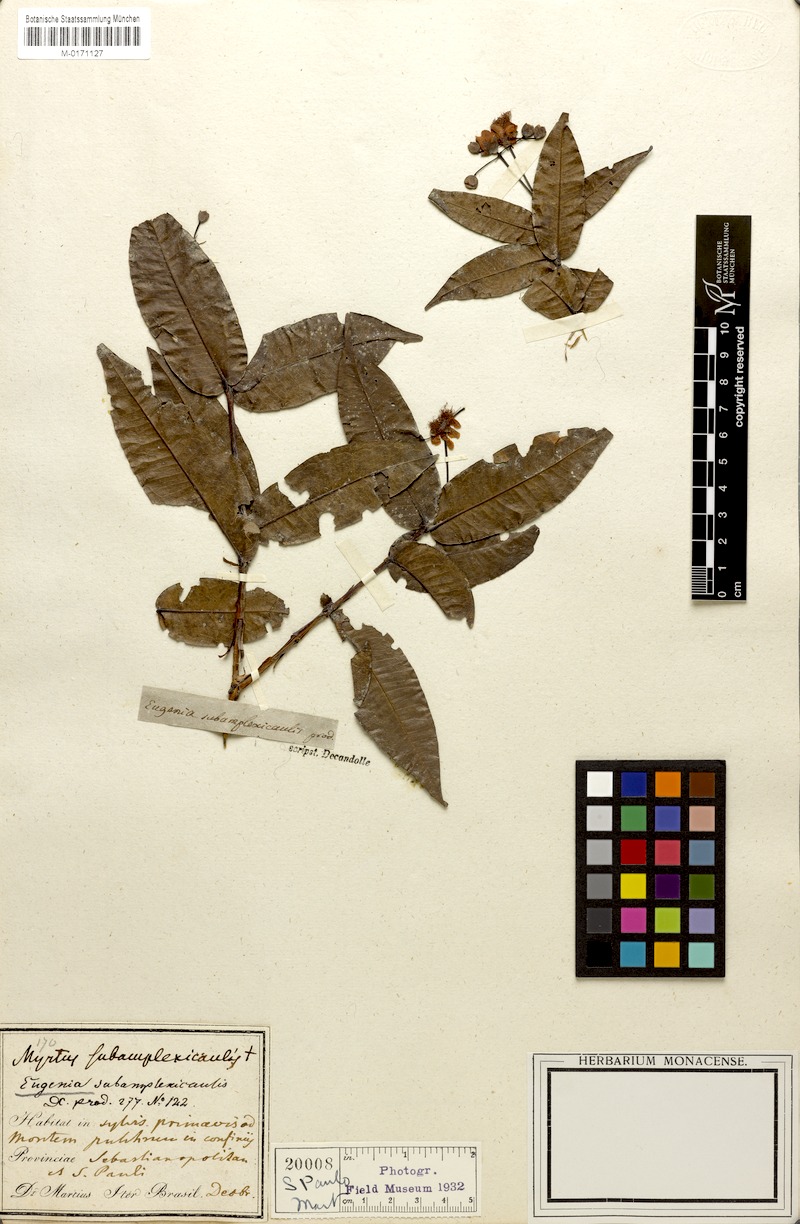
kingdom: Plantae
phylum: Tracheophyta
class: Magnoliopsida
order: Myrtales
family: Myrtaceae
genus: Eugenia
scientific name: Eugenia subamplexicaulis
